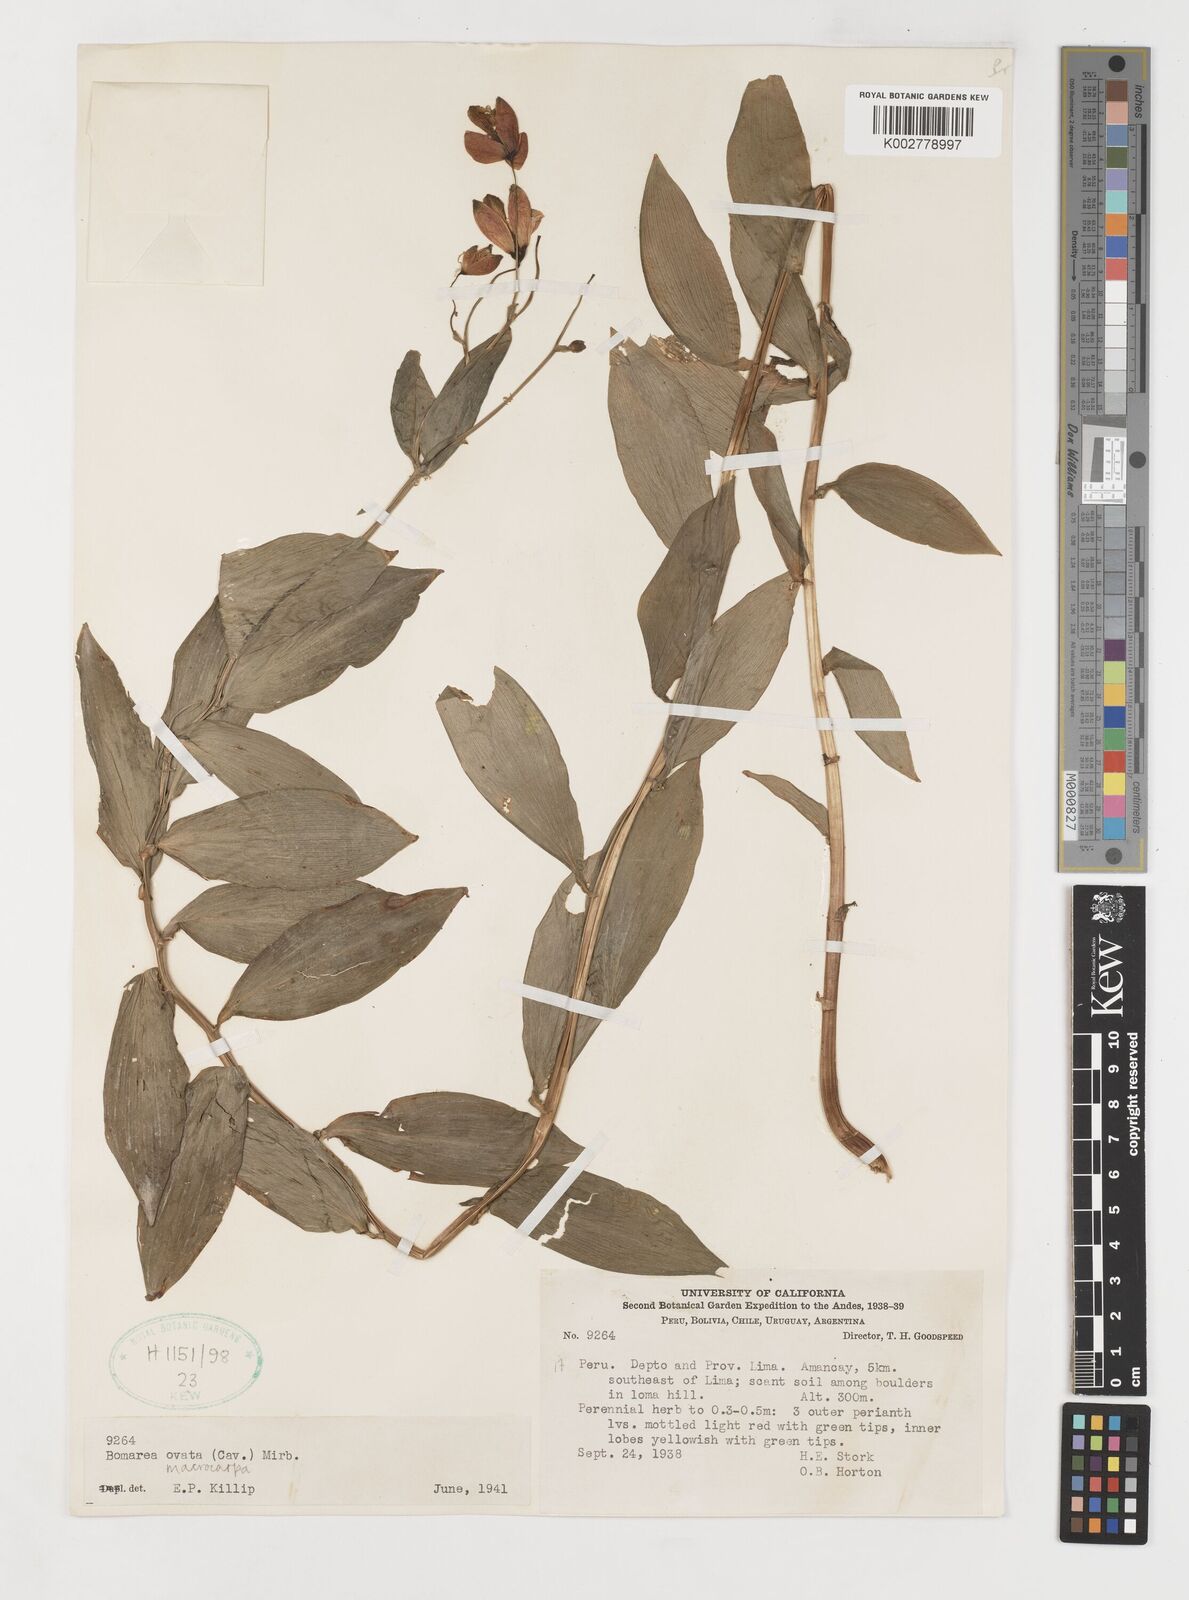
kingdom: Plantae
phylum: Tracheophyta
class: Liliopsida
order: Liliales
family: Alstroemeriaceae
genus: Bomarea
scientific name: Bomarea ovata
